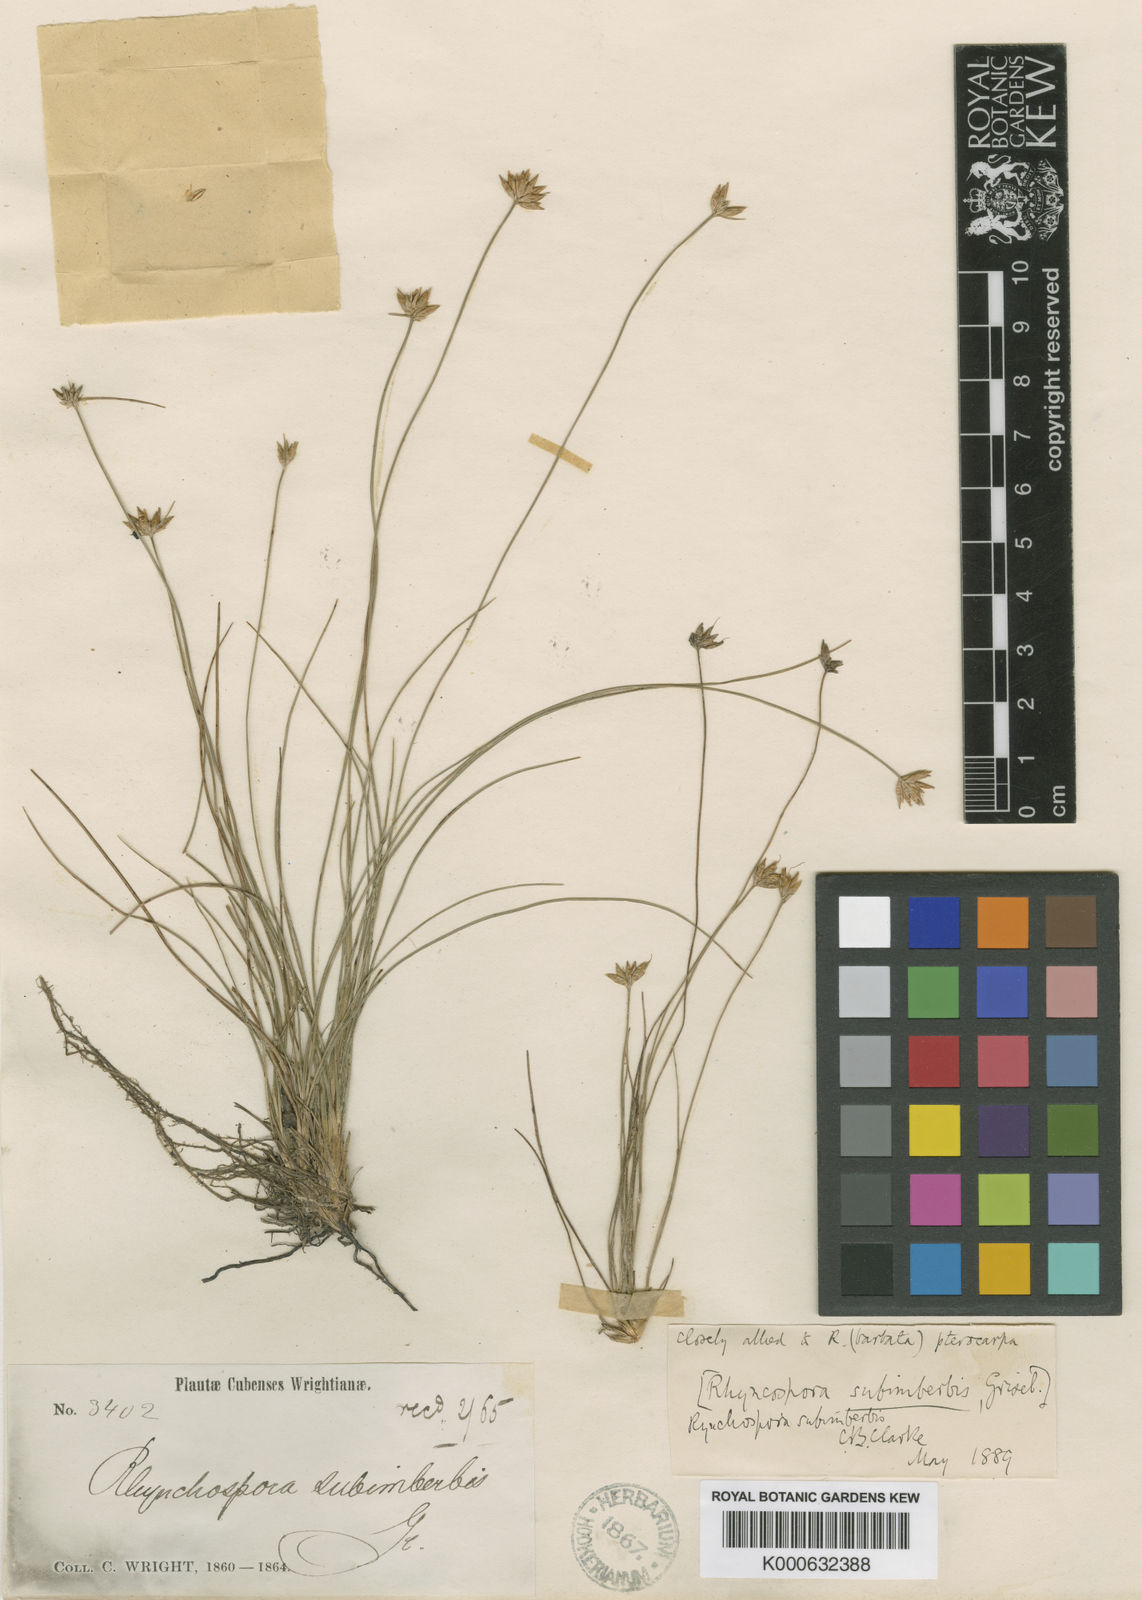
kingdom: Plantae
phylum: Tracheophyta
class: Liliopsida
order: Poales
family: Cyperaceae
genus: Rhynchospora
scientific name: Rhynchospora subimberbis
